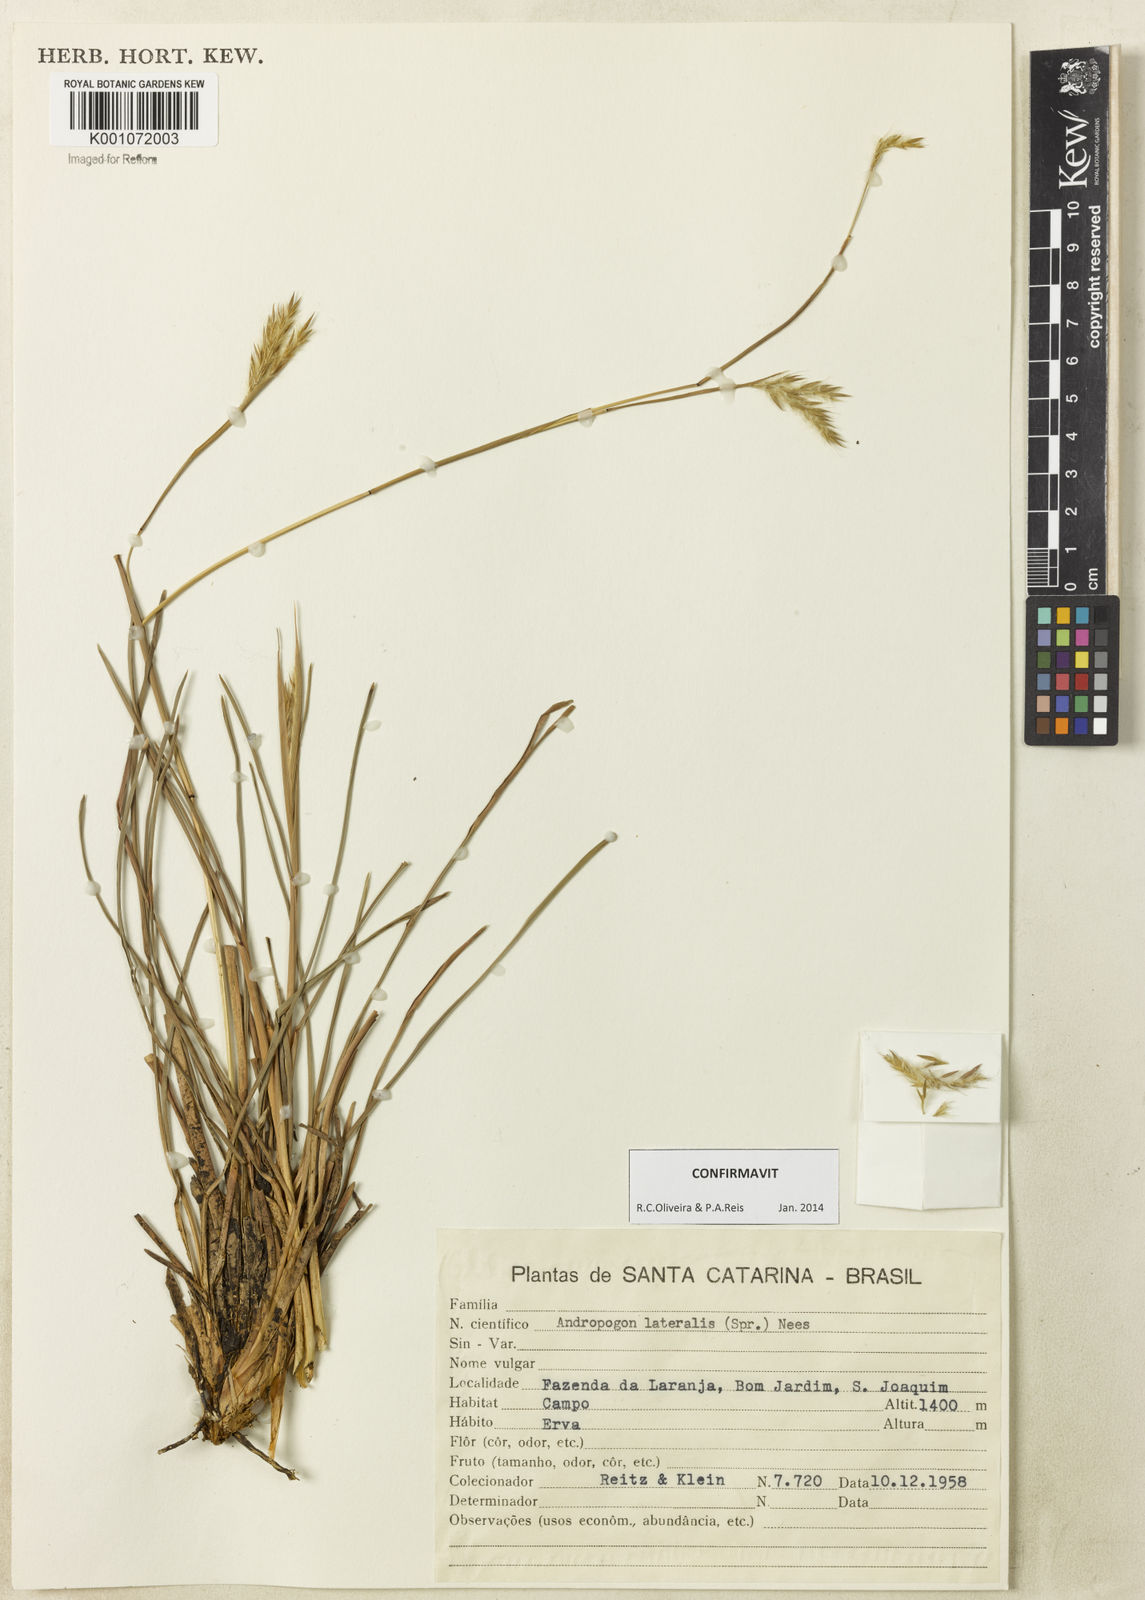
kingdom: Plantae
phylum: Tracheophyta
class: Liliopsida
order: Poales
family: Poaceae
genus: Andropogon
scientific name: Andropogon lateralis
